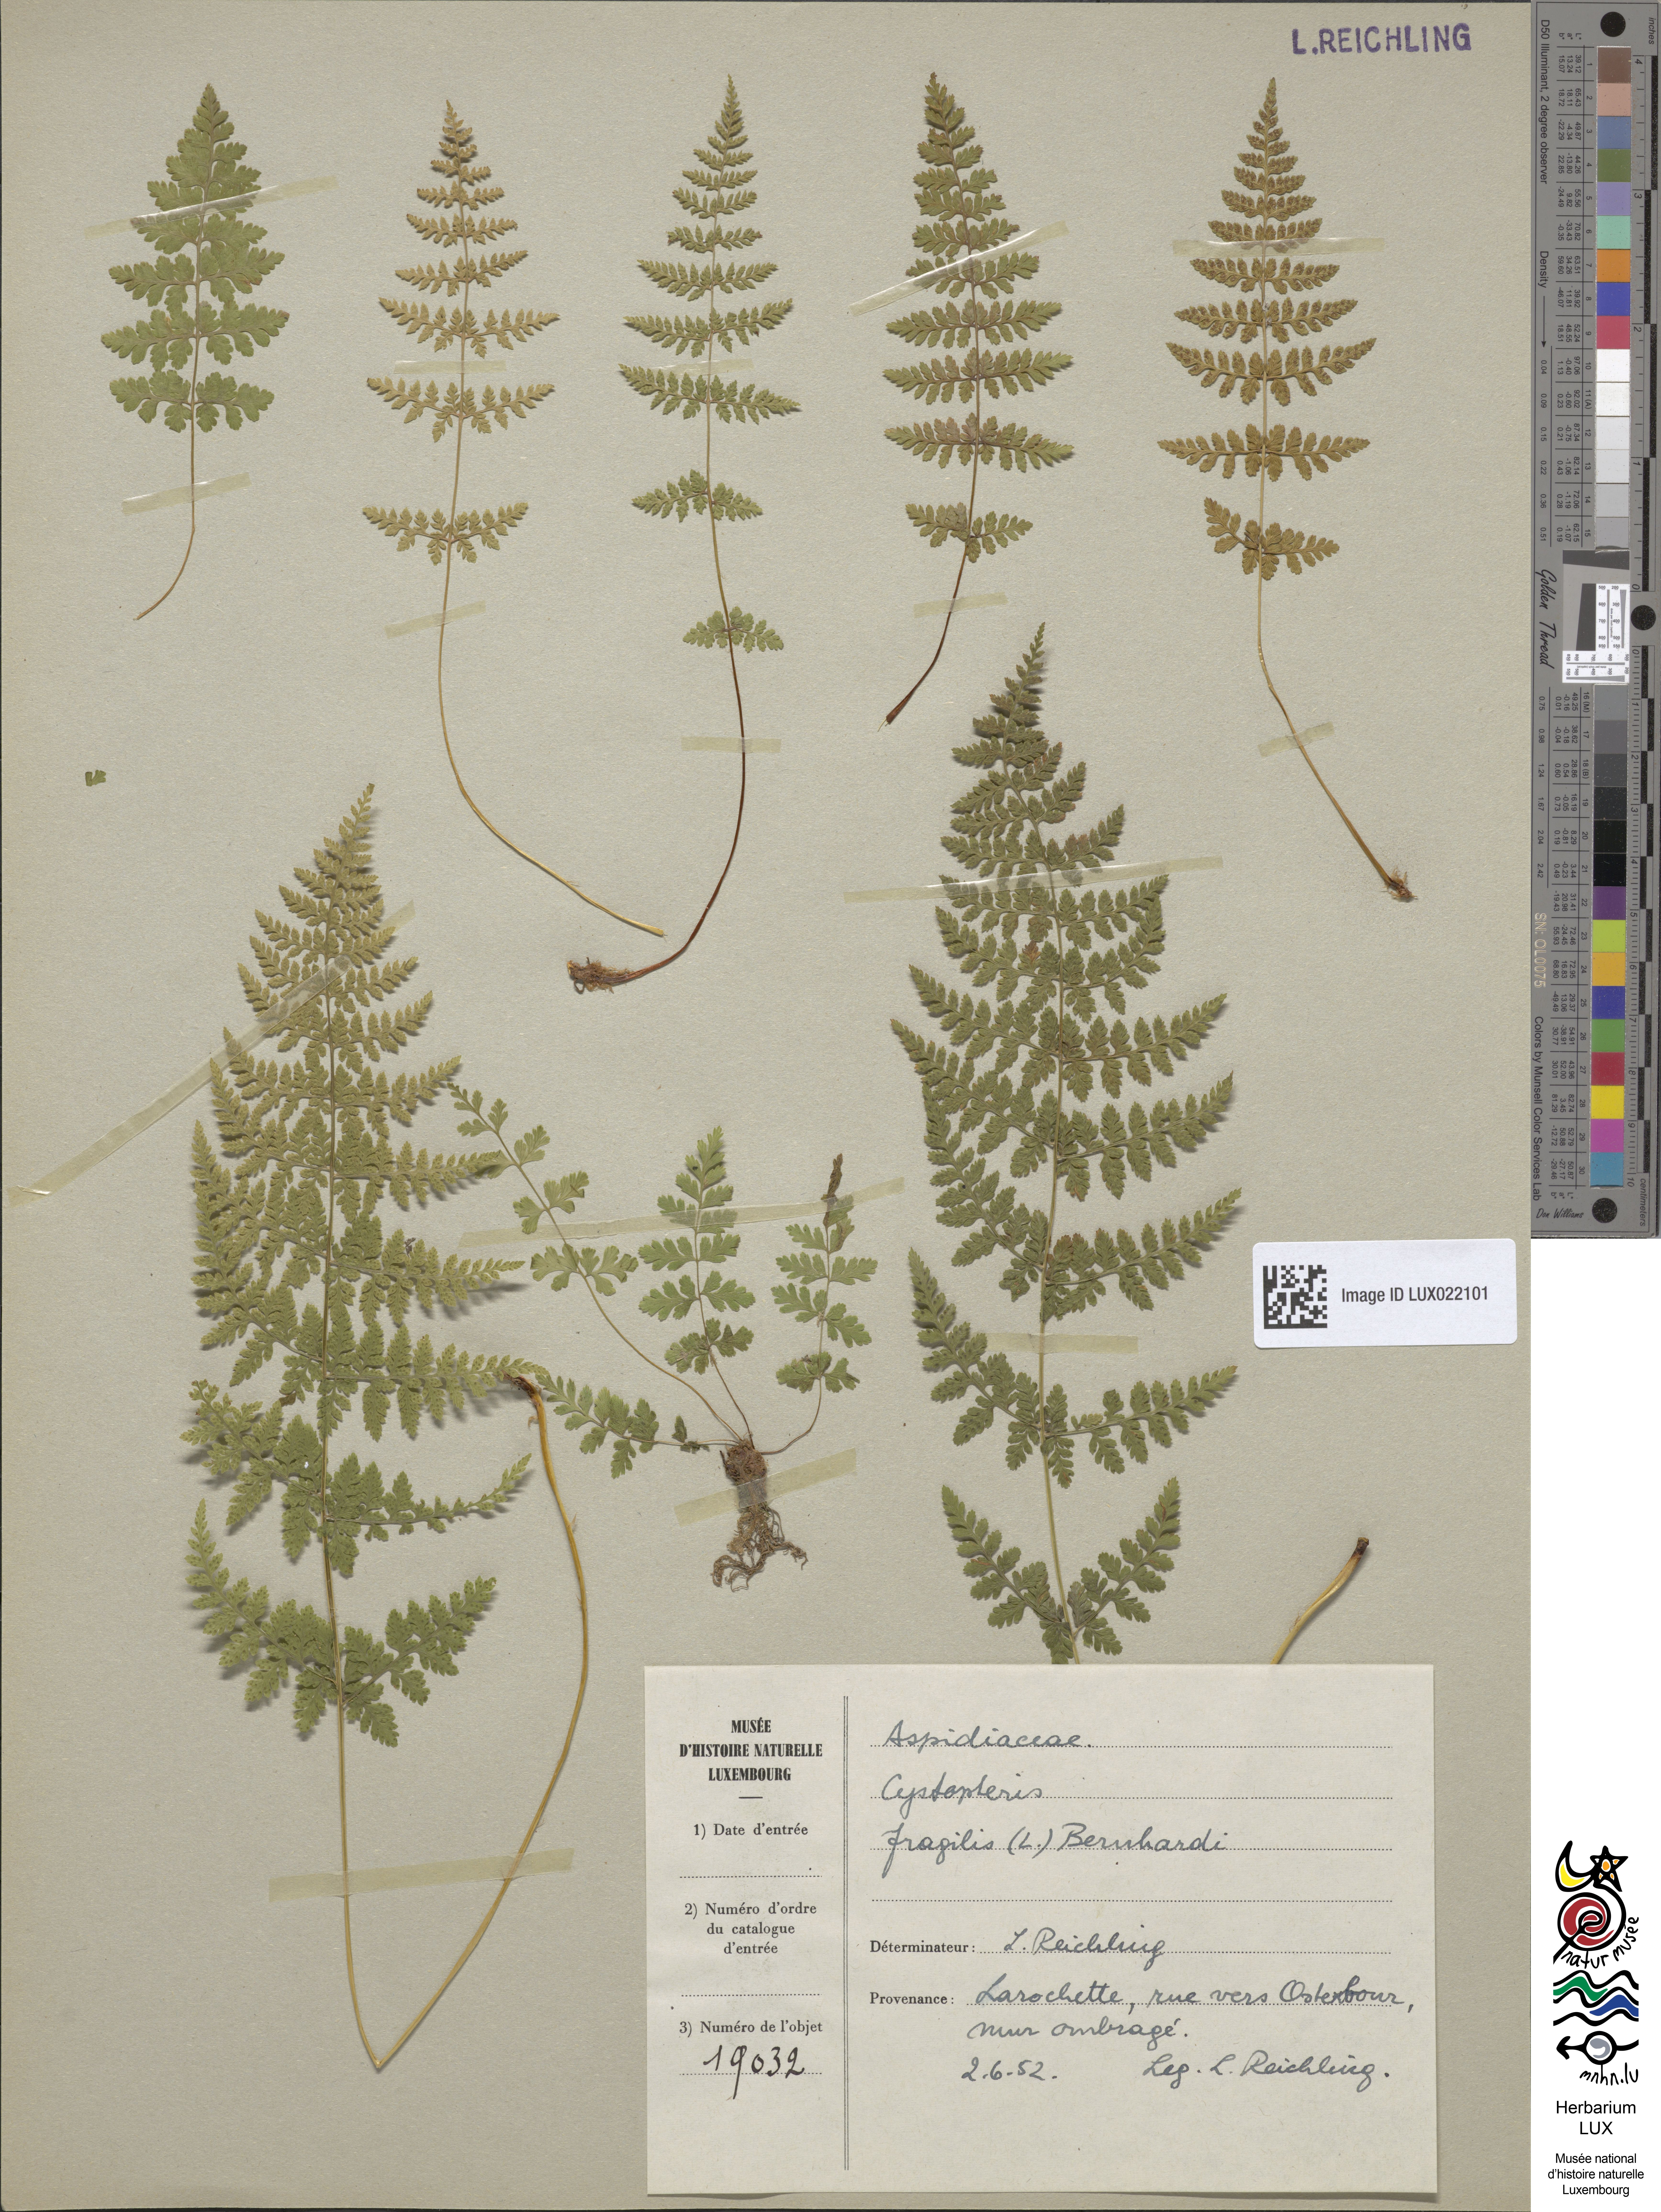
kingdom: Plantae
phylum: Tracheophyta
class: Polypodiopsida
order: Polypodiales
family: Cystopteridaceae
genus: Cystopteris
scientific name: Cystopteris fragilis
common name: Brittle bladder fern
